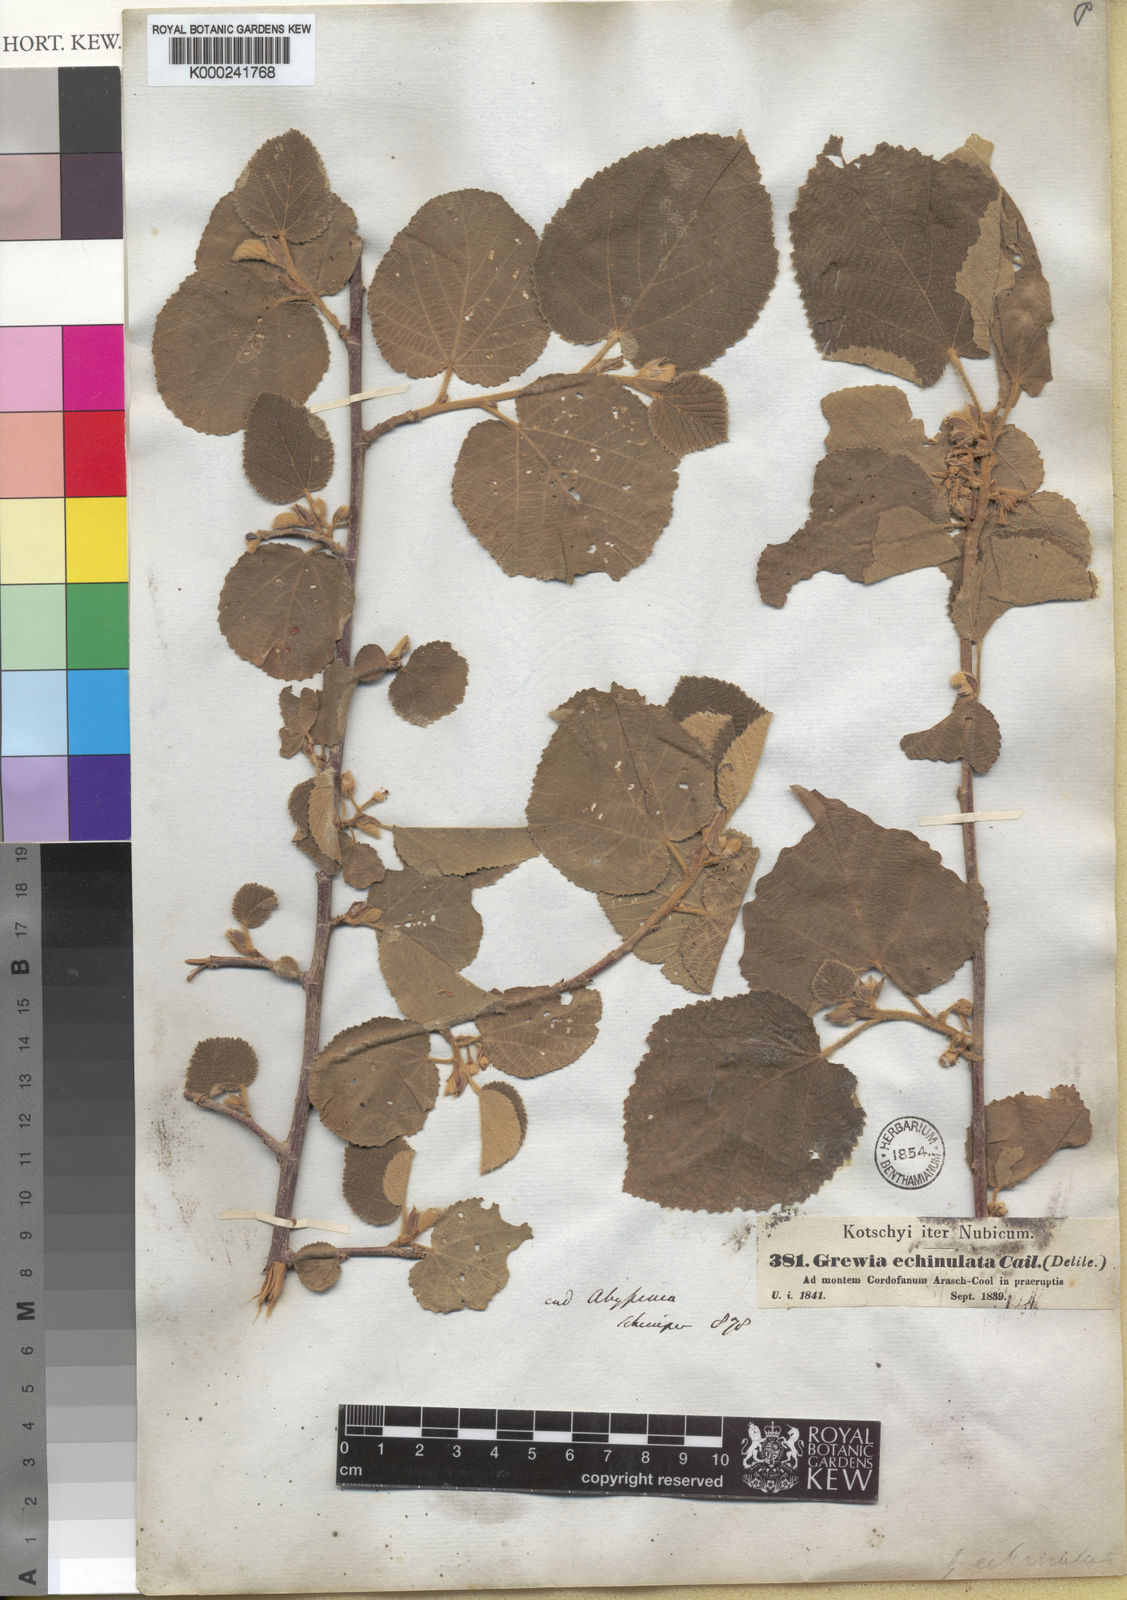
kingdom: Plantae
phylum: Tracheophyta
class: Magnoliopsida
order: Malvales
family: Malvaceae
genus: Grewia
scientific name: Grewia villosa
